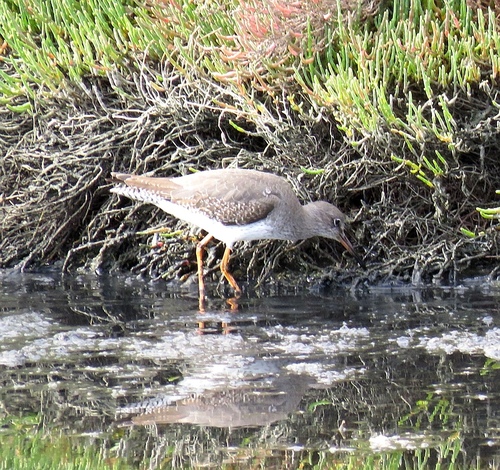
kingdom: Animalia
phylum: Chordata
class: Aves
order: Charadriiformes
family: Scolopacidae
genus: Tringa
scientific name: Tringa totanus
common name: Common redshank
